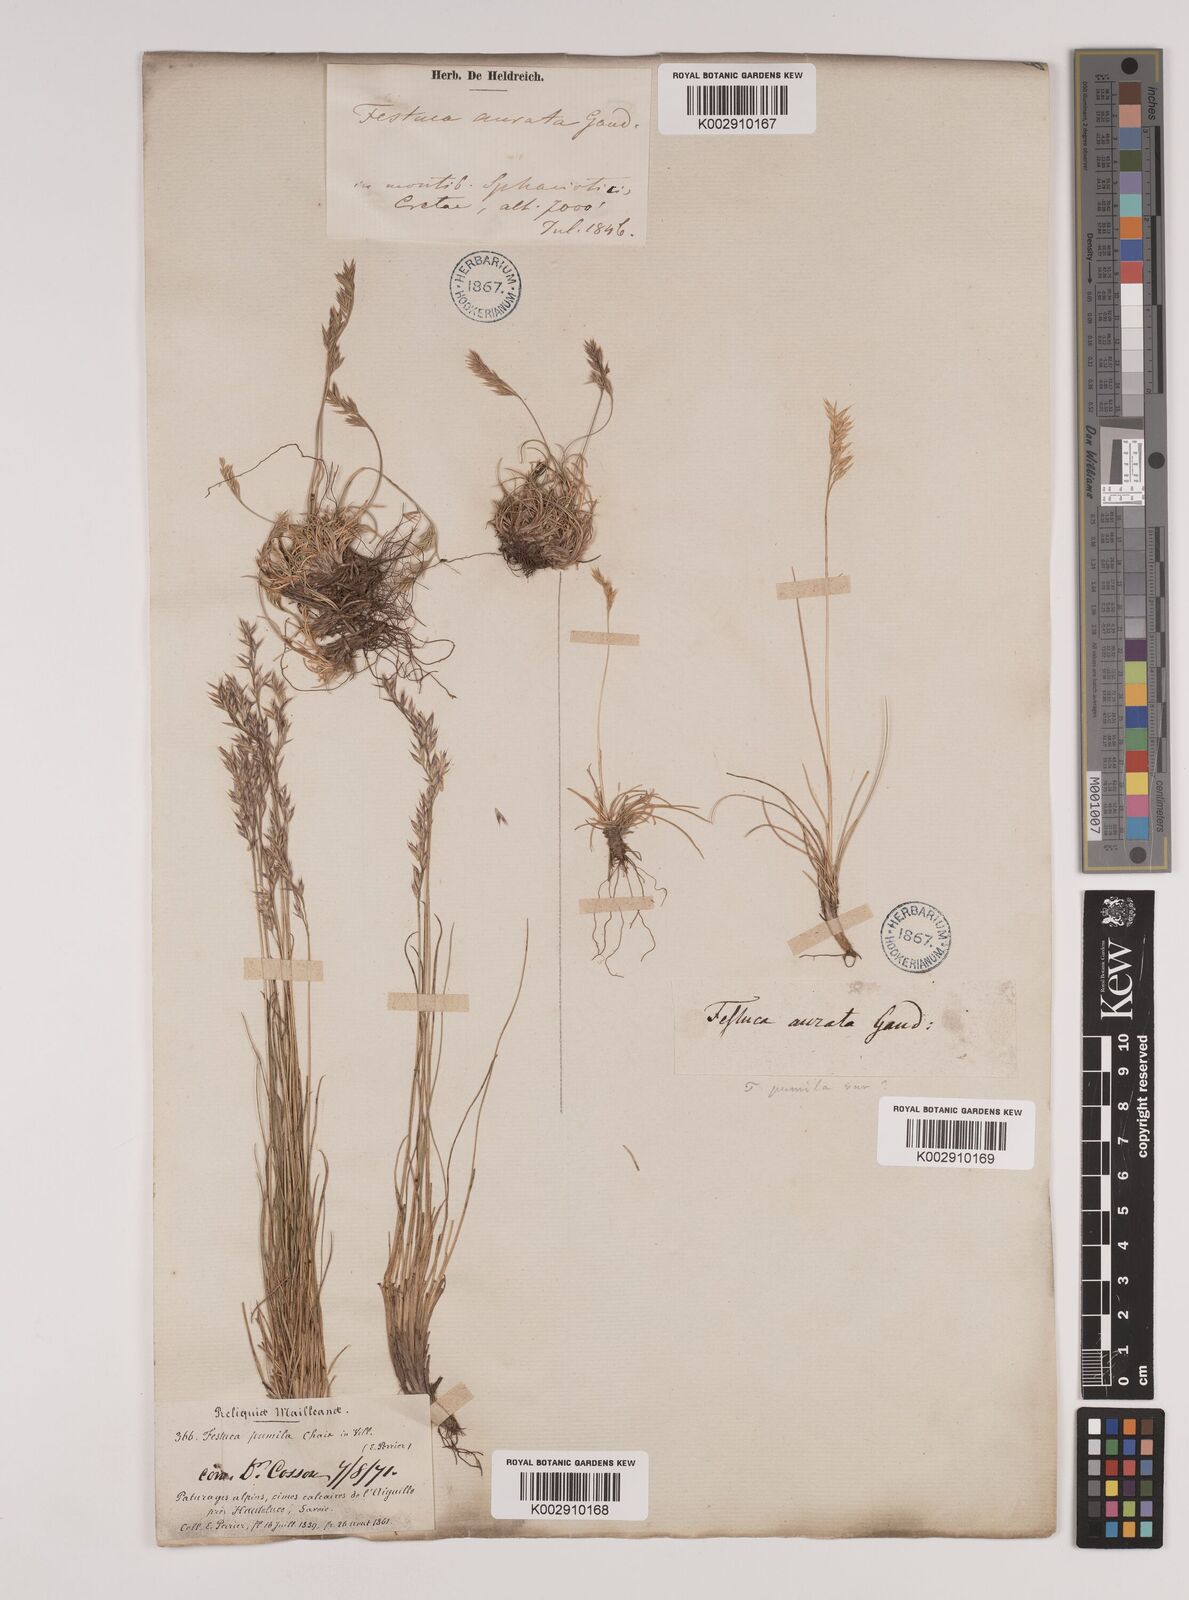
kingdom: Plantae
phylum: Tracheophyta
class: Liliopsida
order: Poales
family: Poaceae
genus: Festuca
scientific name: Festuca
